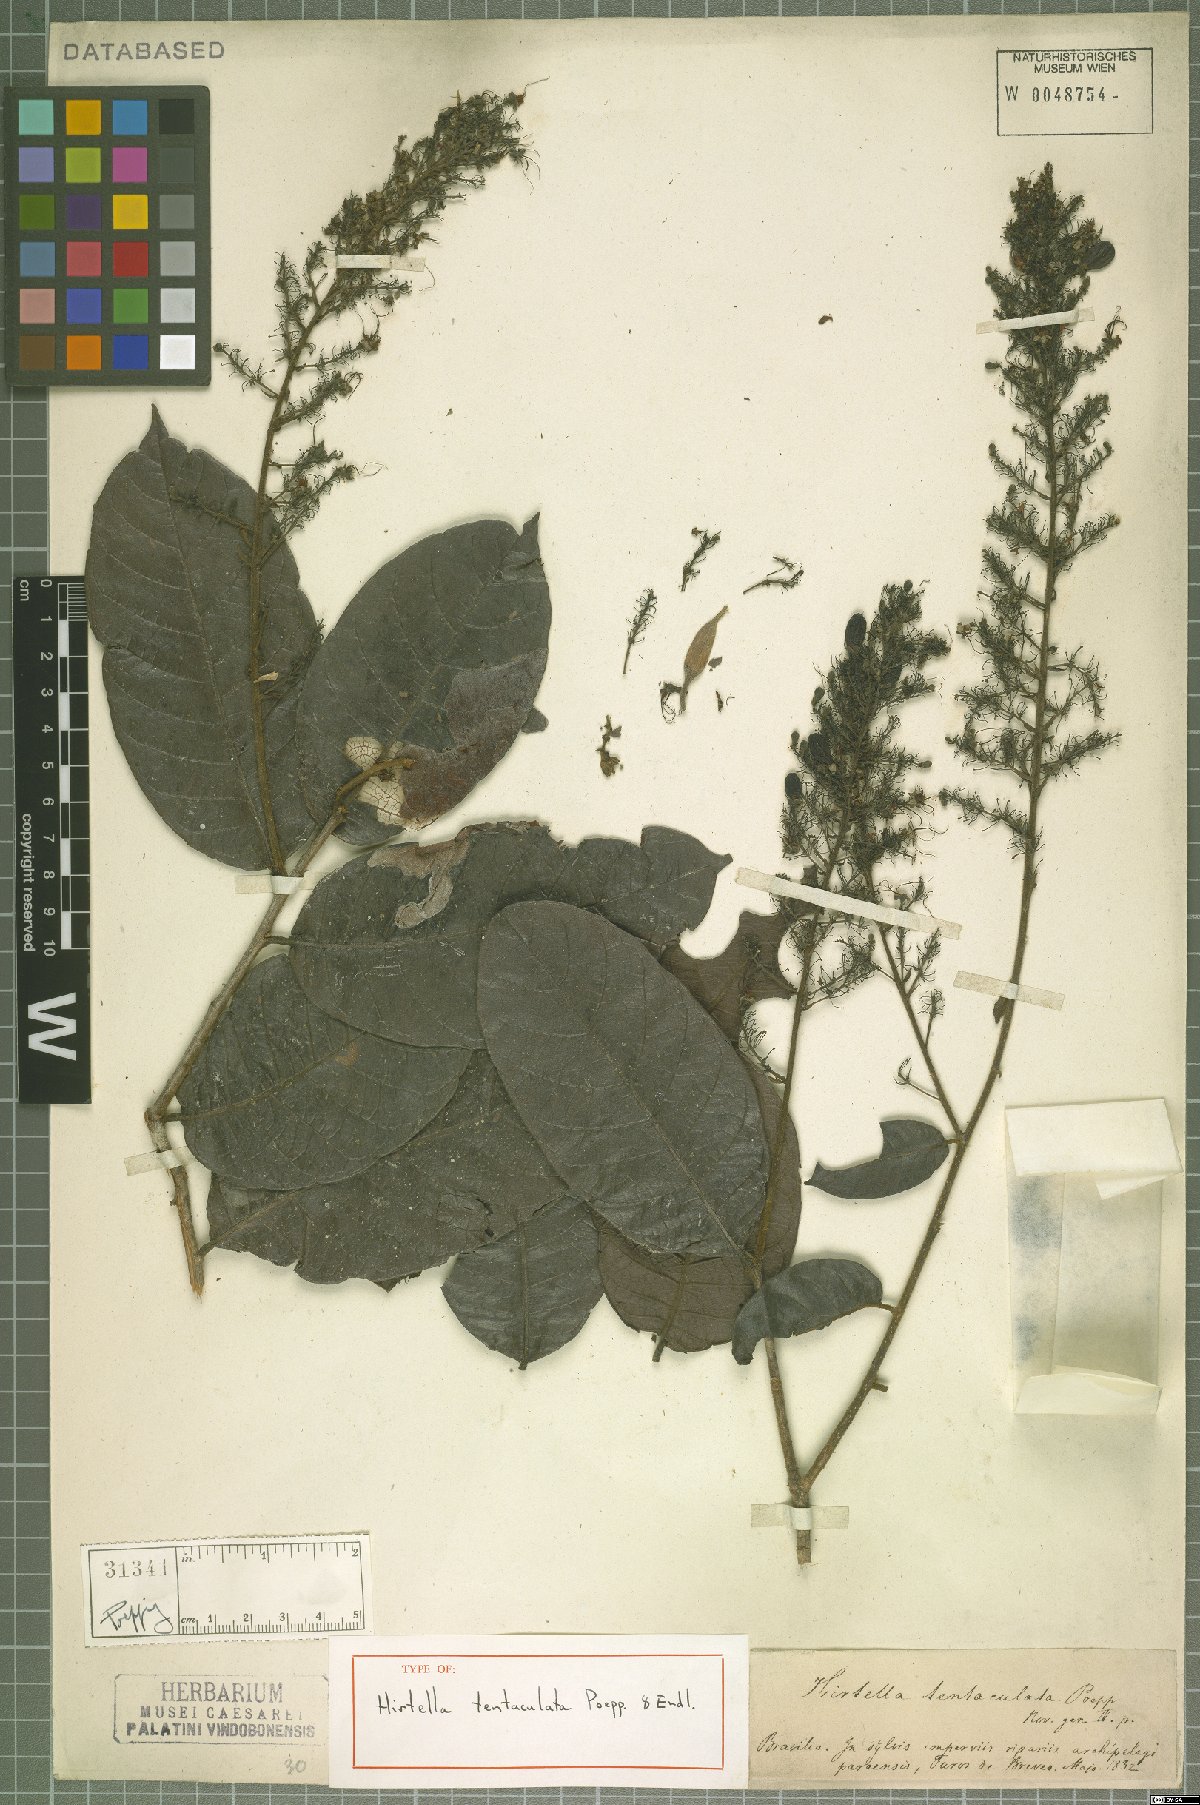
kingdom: Plantae
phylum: Tracheophyta
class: Magnoliopsida
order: Malpighiales
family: Chrysobalanaceae
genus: Hirtella
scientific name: Hirtella tentaculata
